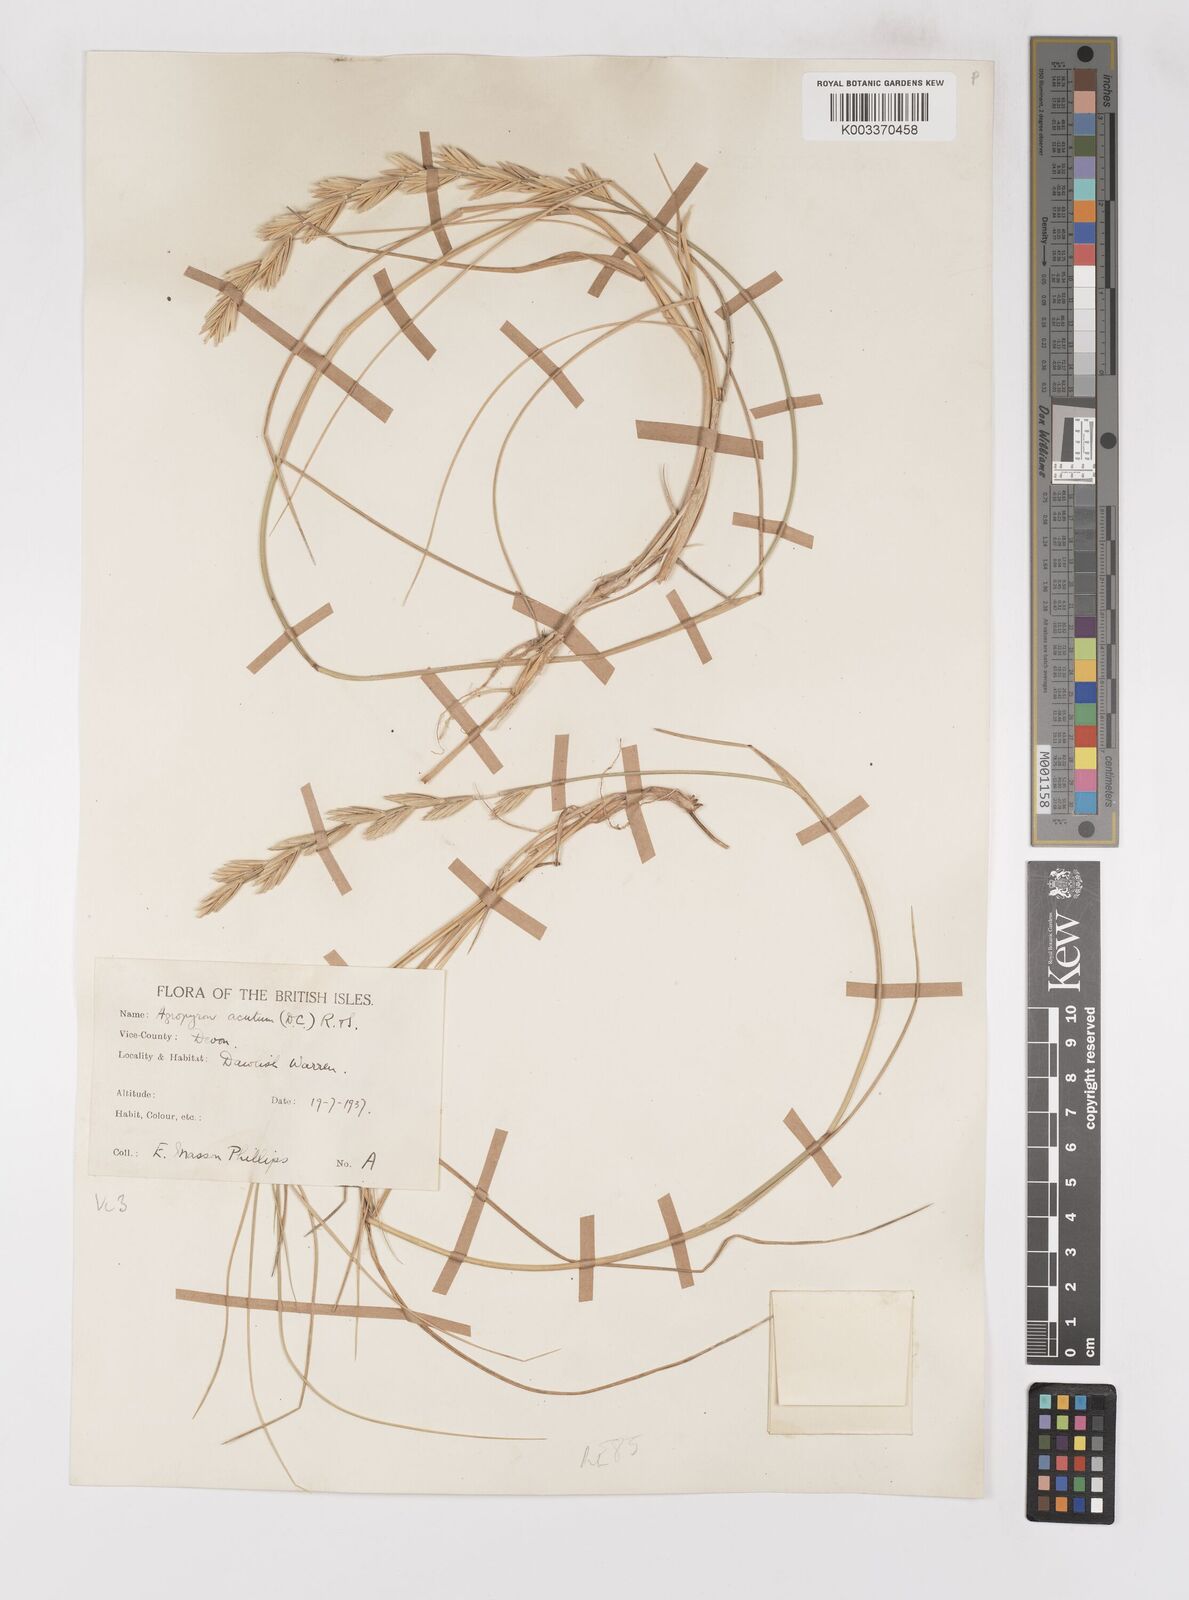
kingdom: Plantae
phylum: Tracheophyta
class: Liliopsida
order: Poales
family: Poaceae
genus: Thinoelymus
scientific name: Thinoelymus obtusiusculus
